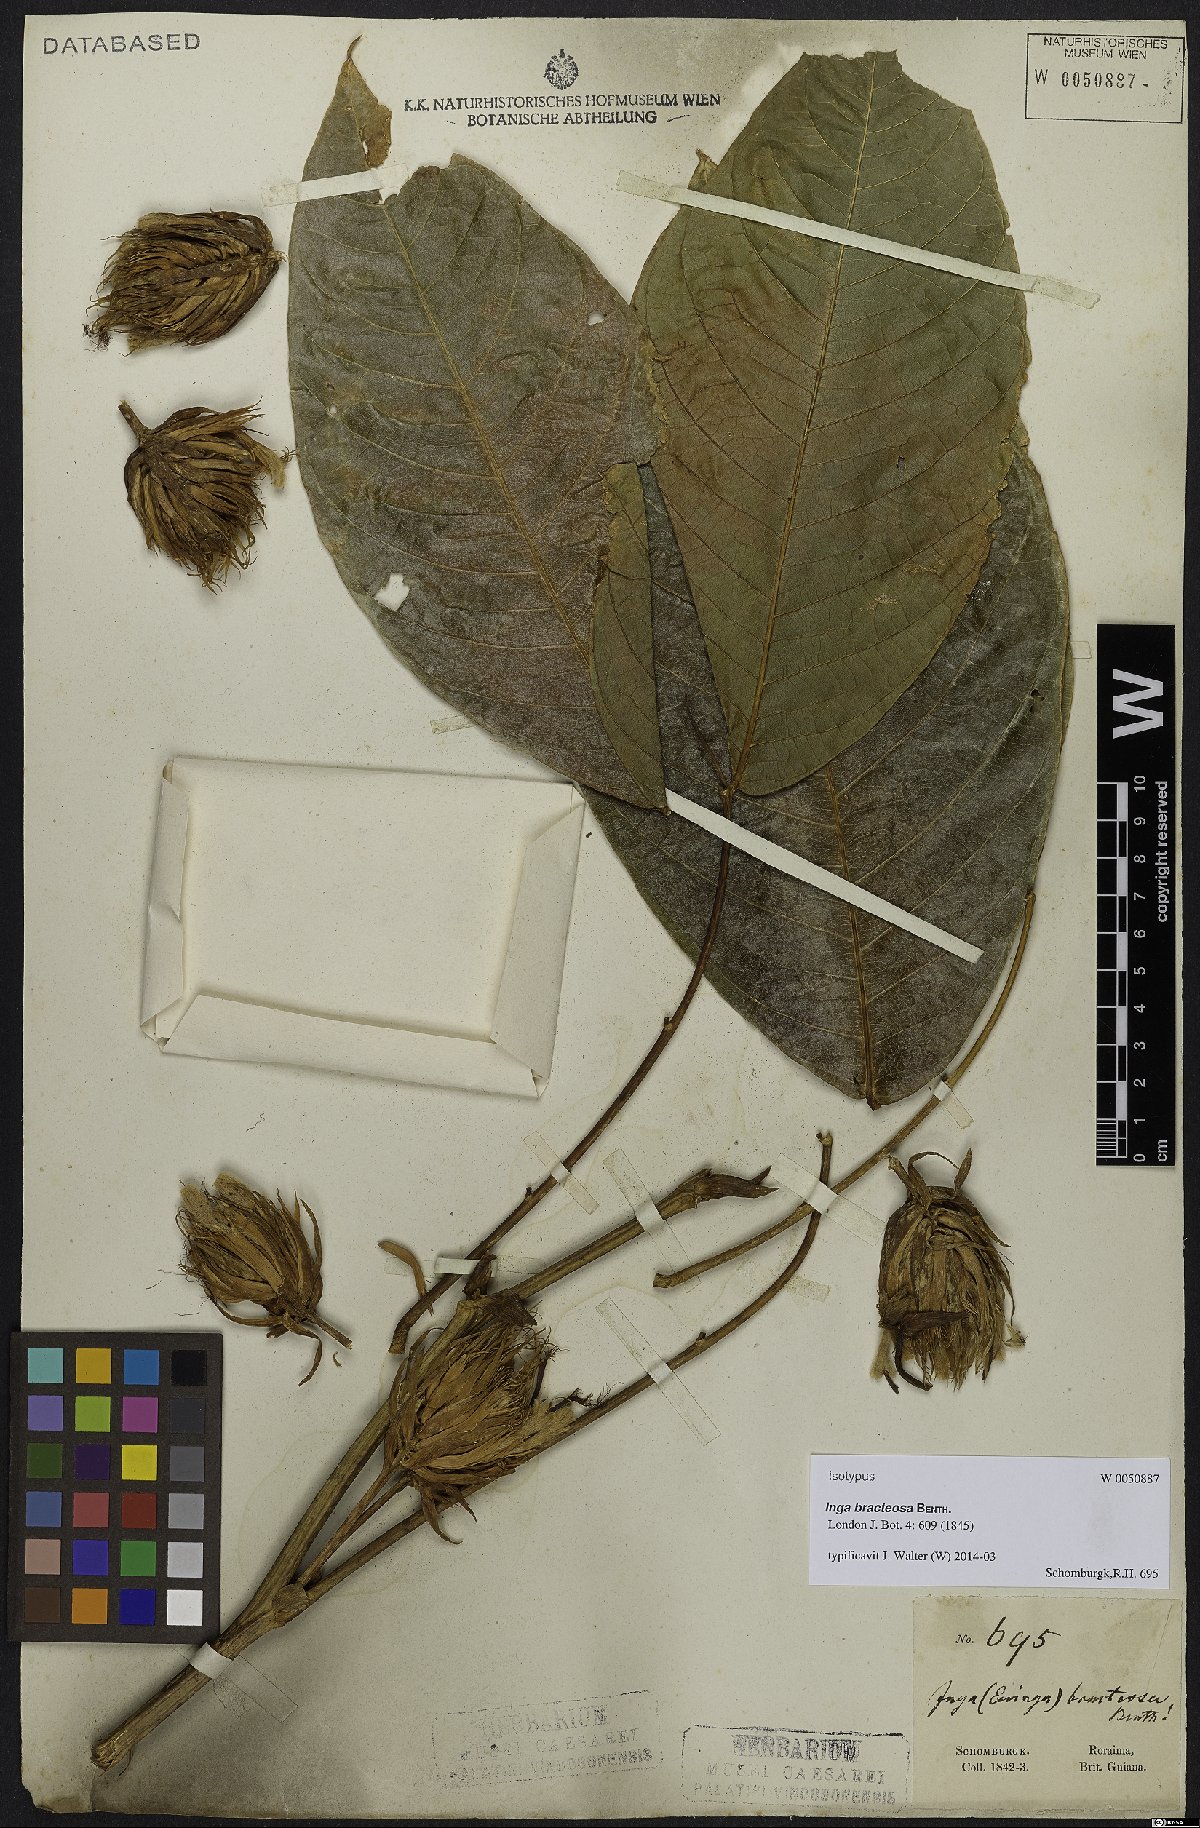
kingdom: Plantae
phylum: Tracheophyta
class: Magnoliopsida
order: Fabales
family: Fabaceae
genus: Inga
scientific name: Inga macrophylla
